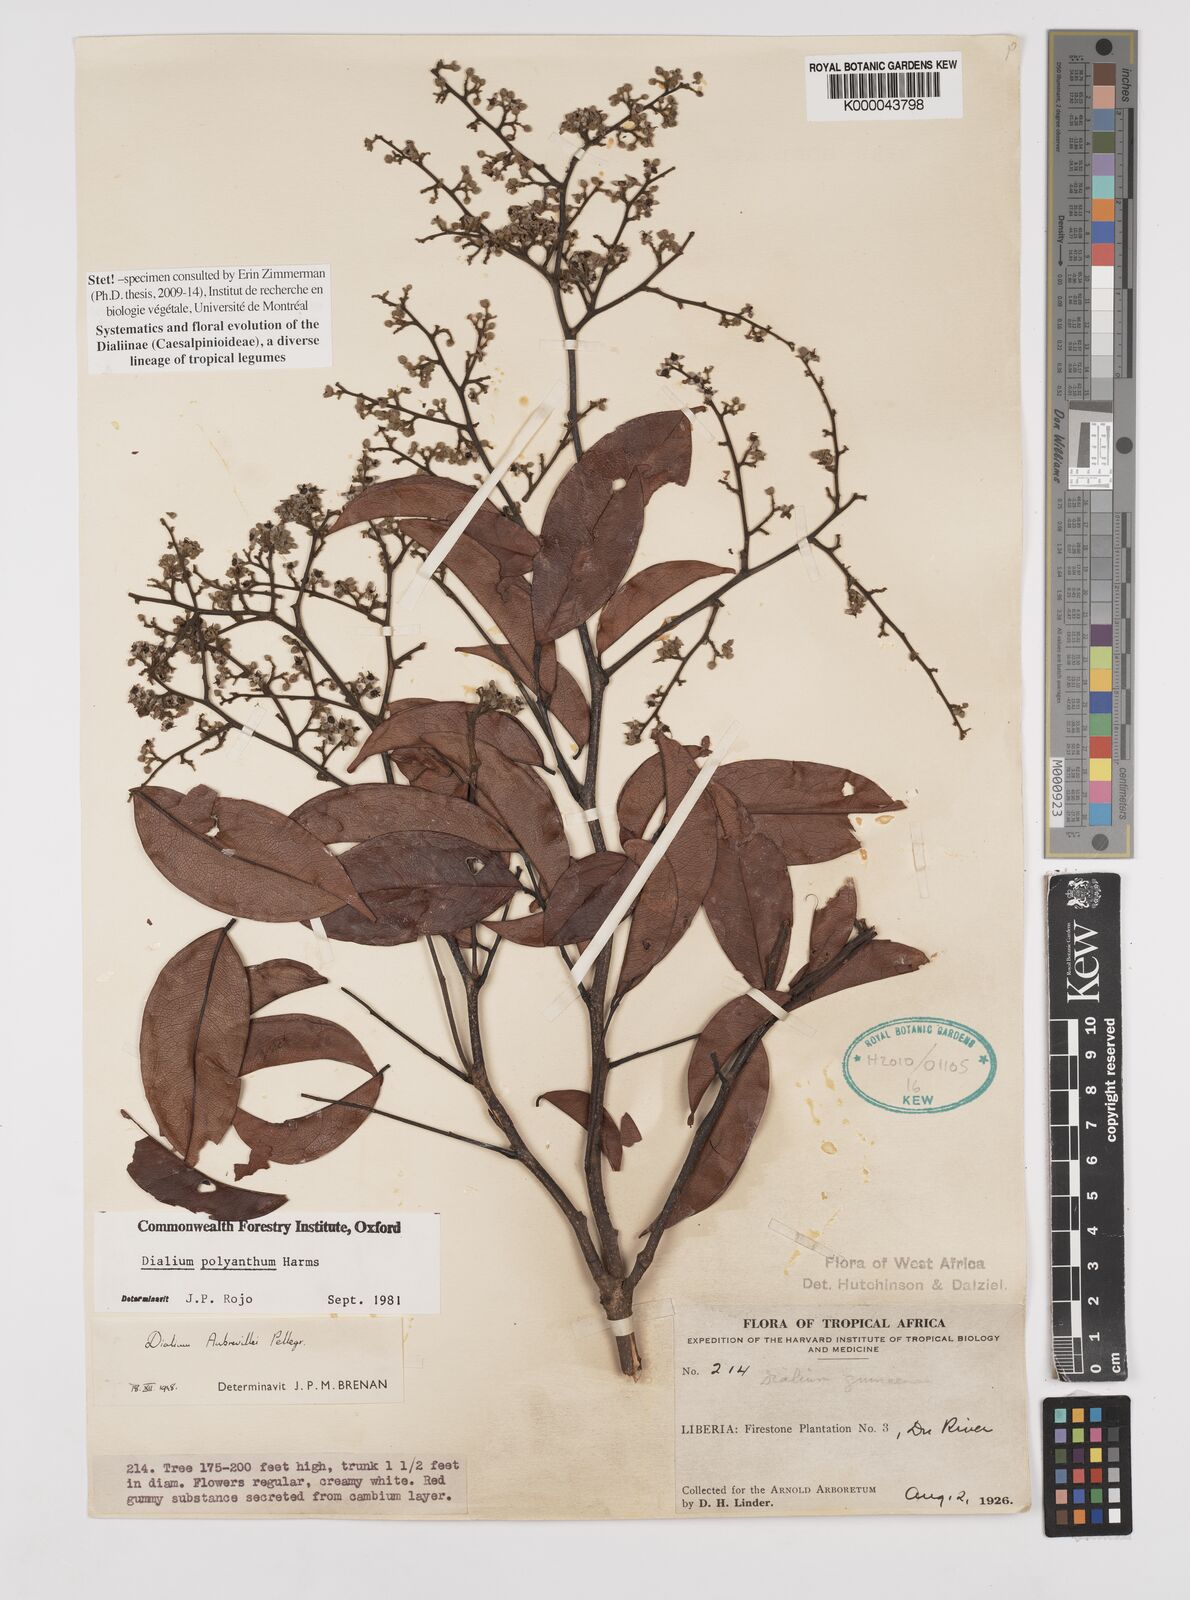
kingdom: Plantae
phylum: Tracheophyta
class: Magnoliopsida
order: Fabales
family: Fabaceae
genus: Dialium
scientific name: Dialium polyanthum
